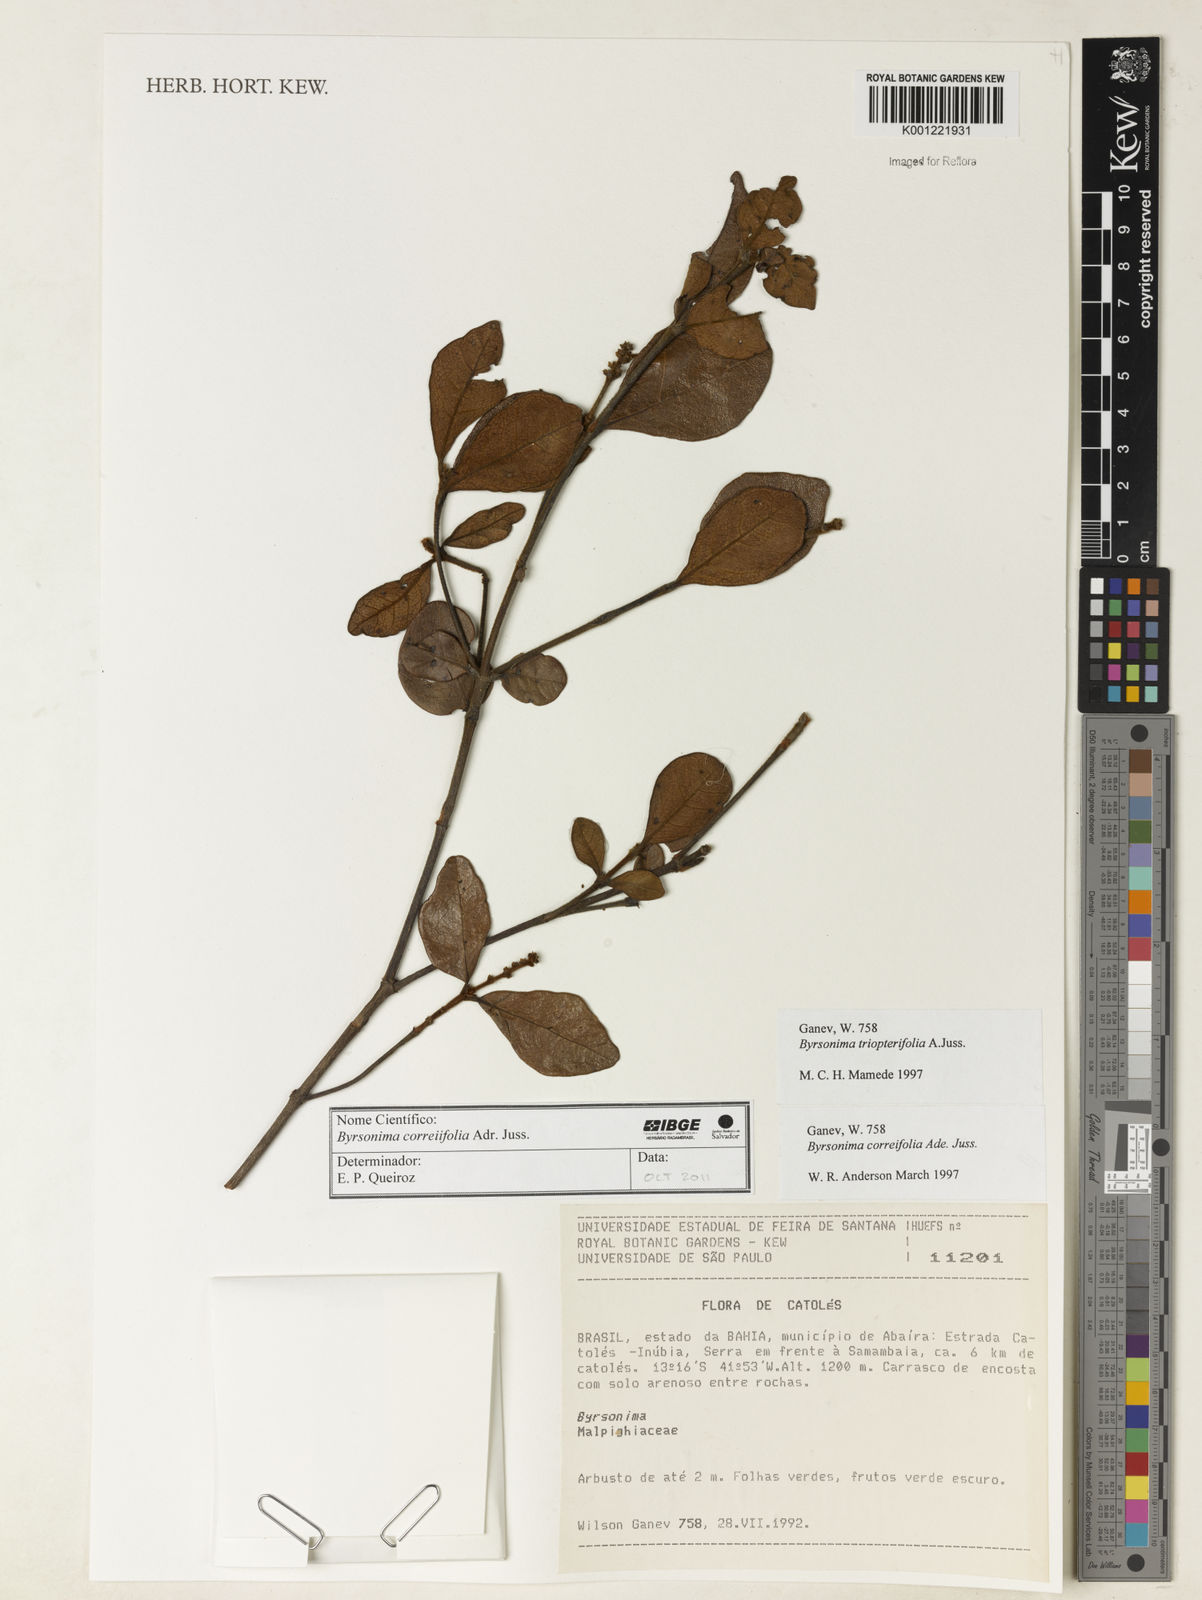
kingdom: Plantae
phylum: Tracheophyta
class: Magnoliopsida
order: Malpighiales
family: Malpighiaceae
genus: Byrsonima
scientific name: Byrsonima correifolia
